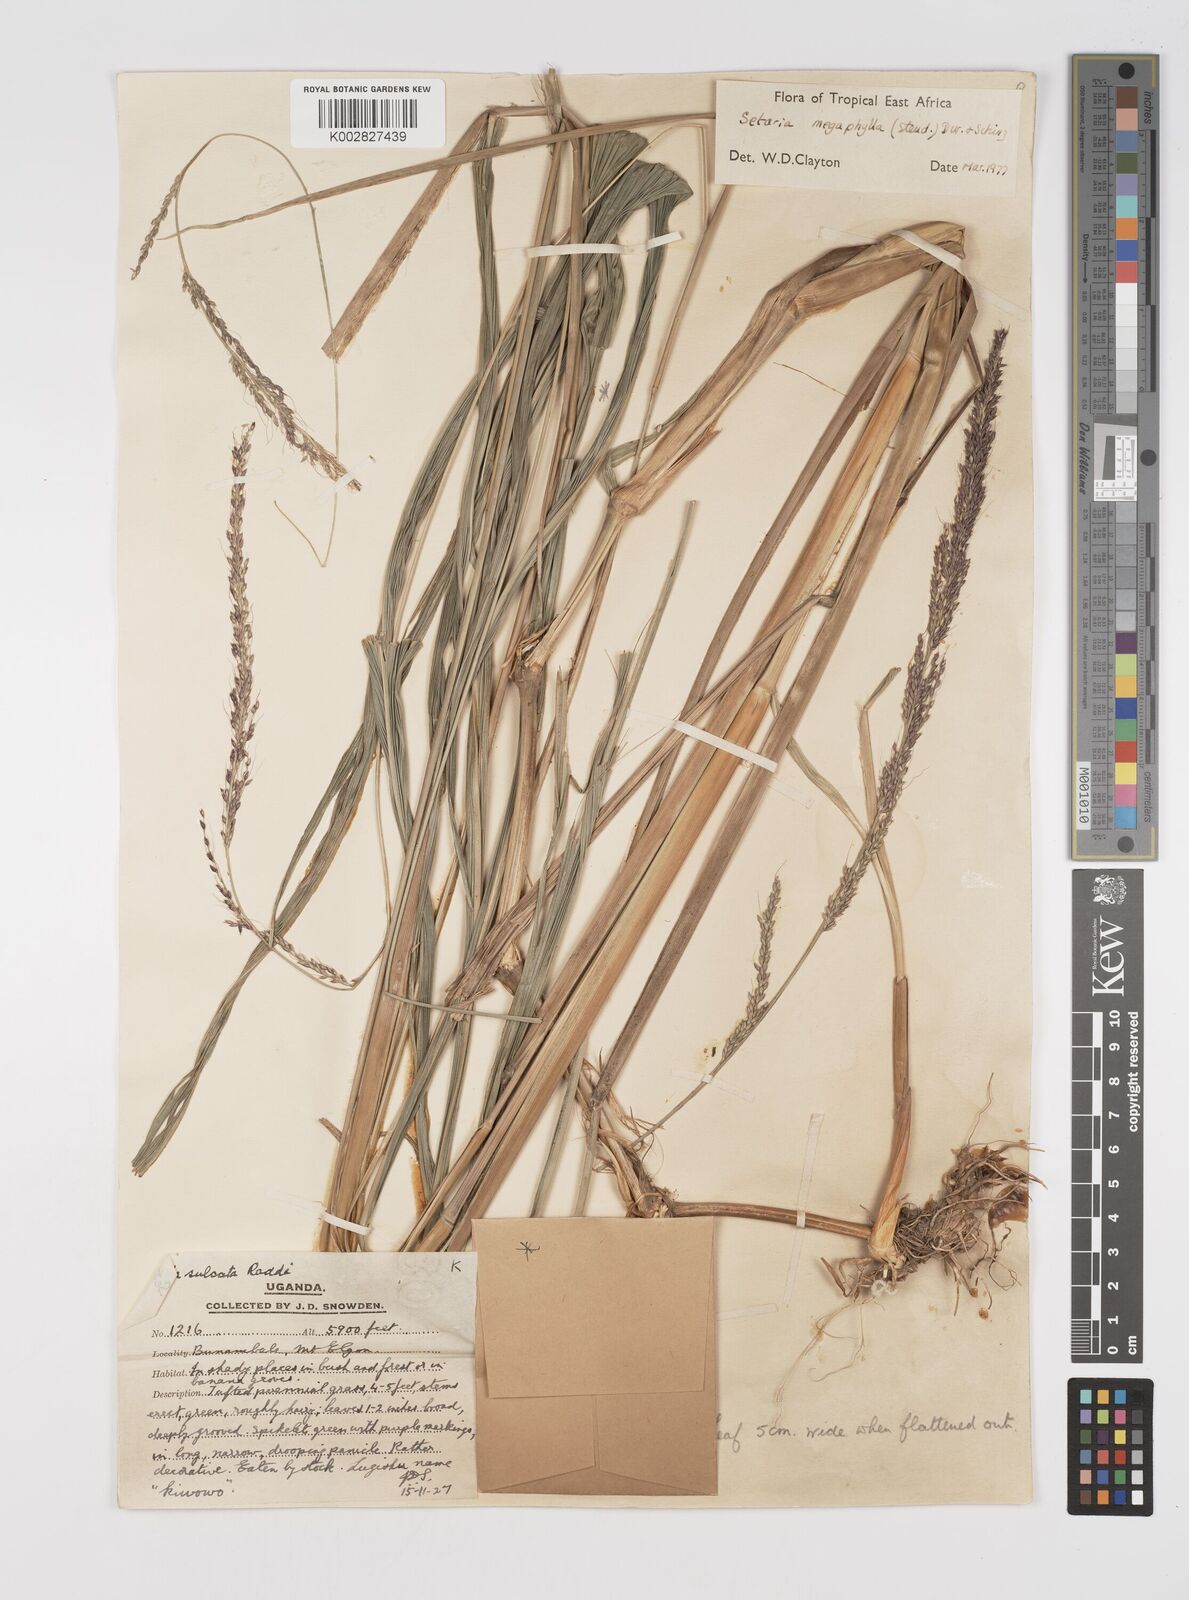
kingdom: Plantae
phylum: Tracheophyta
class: Liliopsida
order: Poales
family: Poaceae
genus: Setaria
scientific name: Setaria megaphylla
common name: Bigleaf bristlegrass
